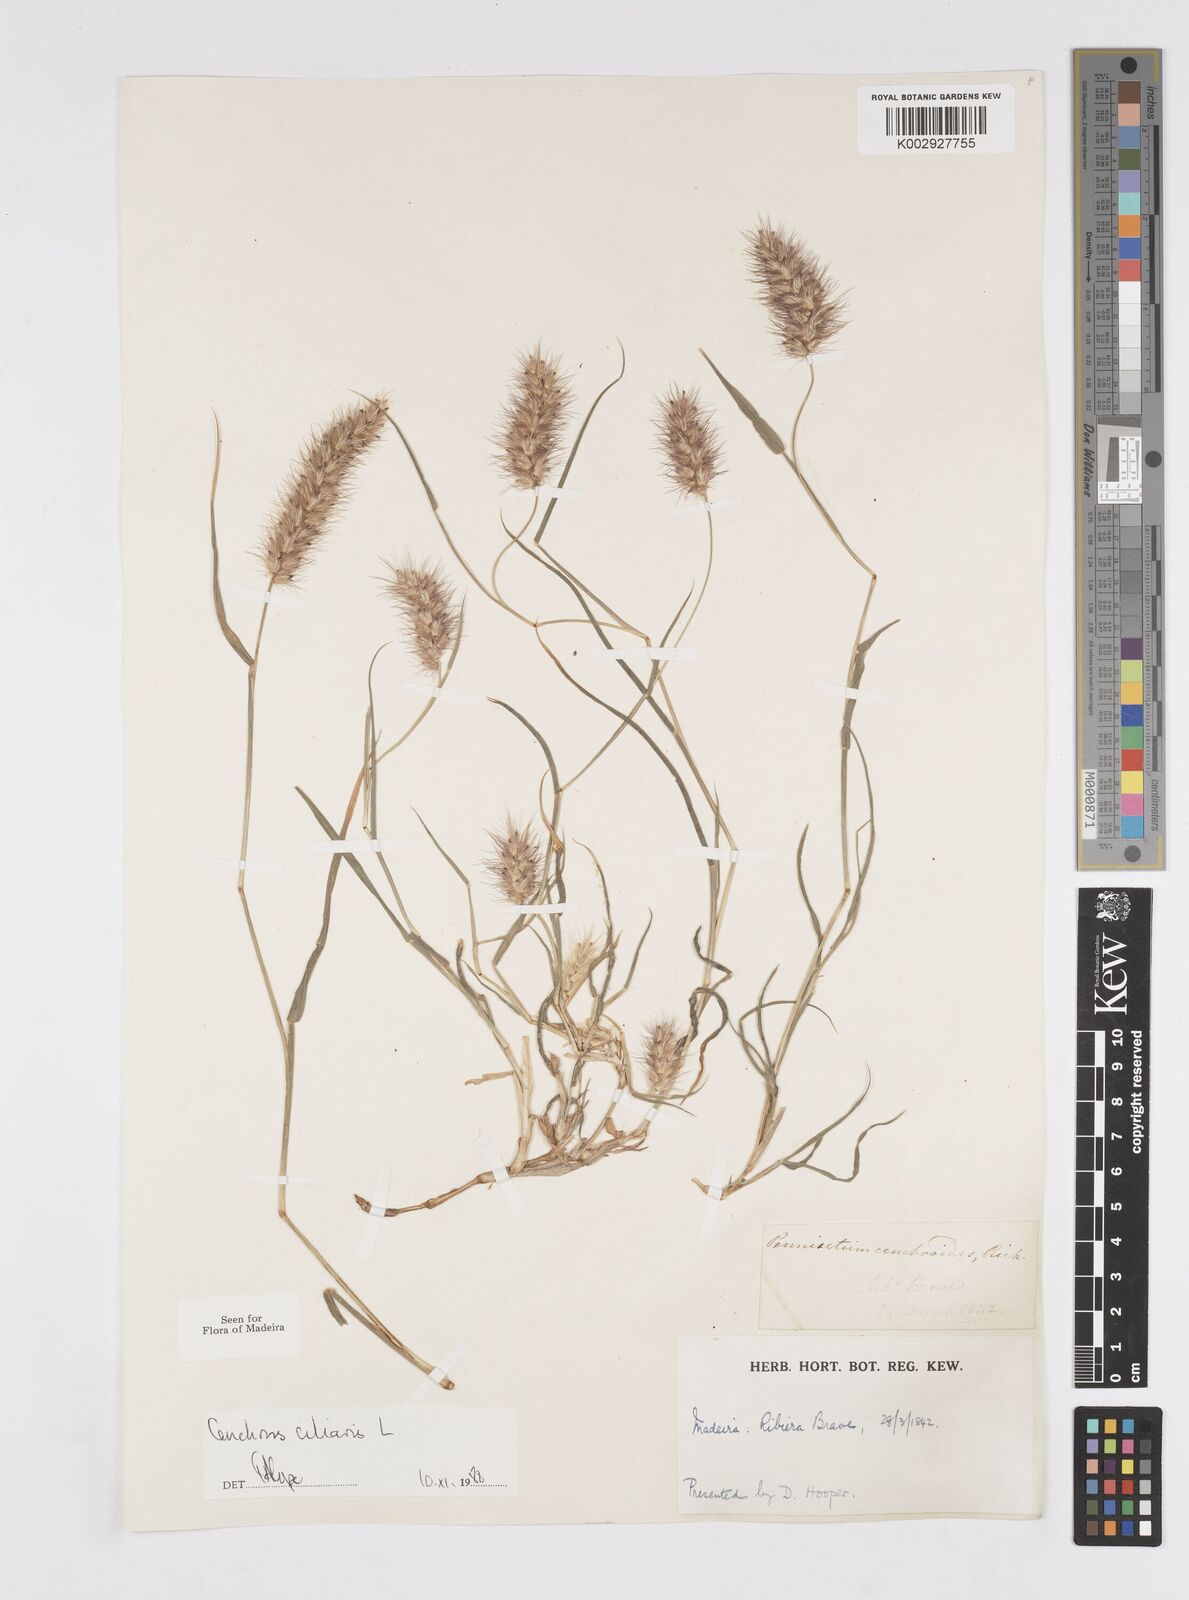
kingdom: Plantae
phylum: Tracheophyta
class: Liliopsida
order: Poales
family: Poaceae
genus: Cenchrus
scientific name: Cenchrus ciliaris
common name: Buffelgrass
